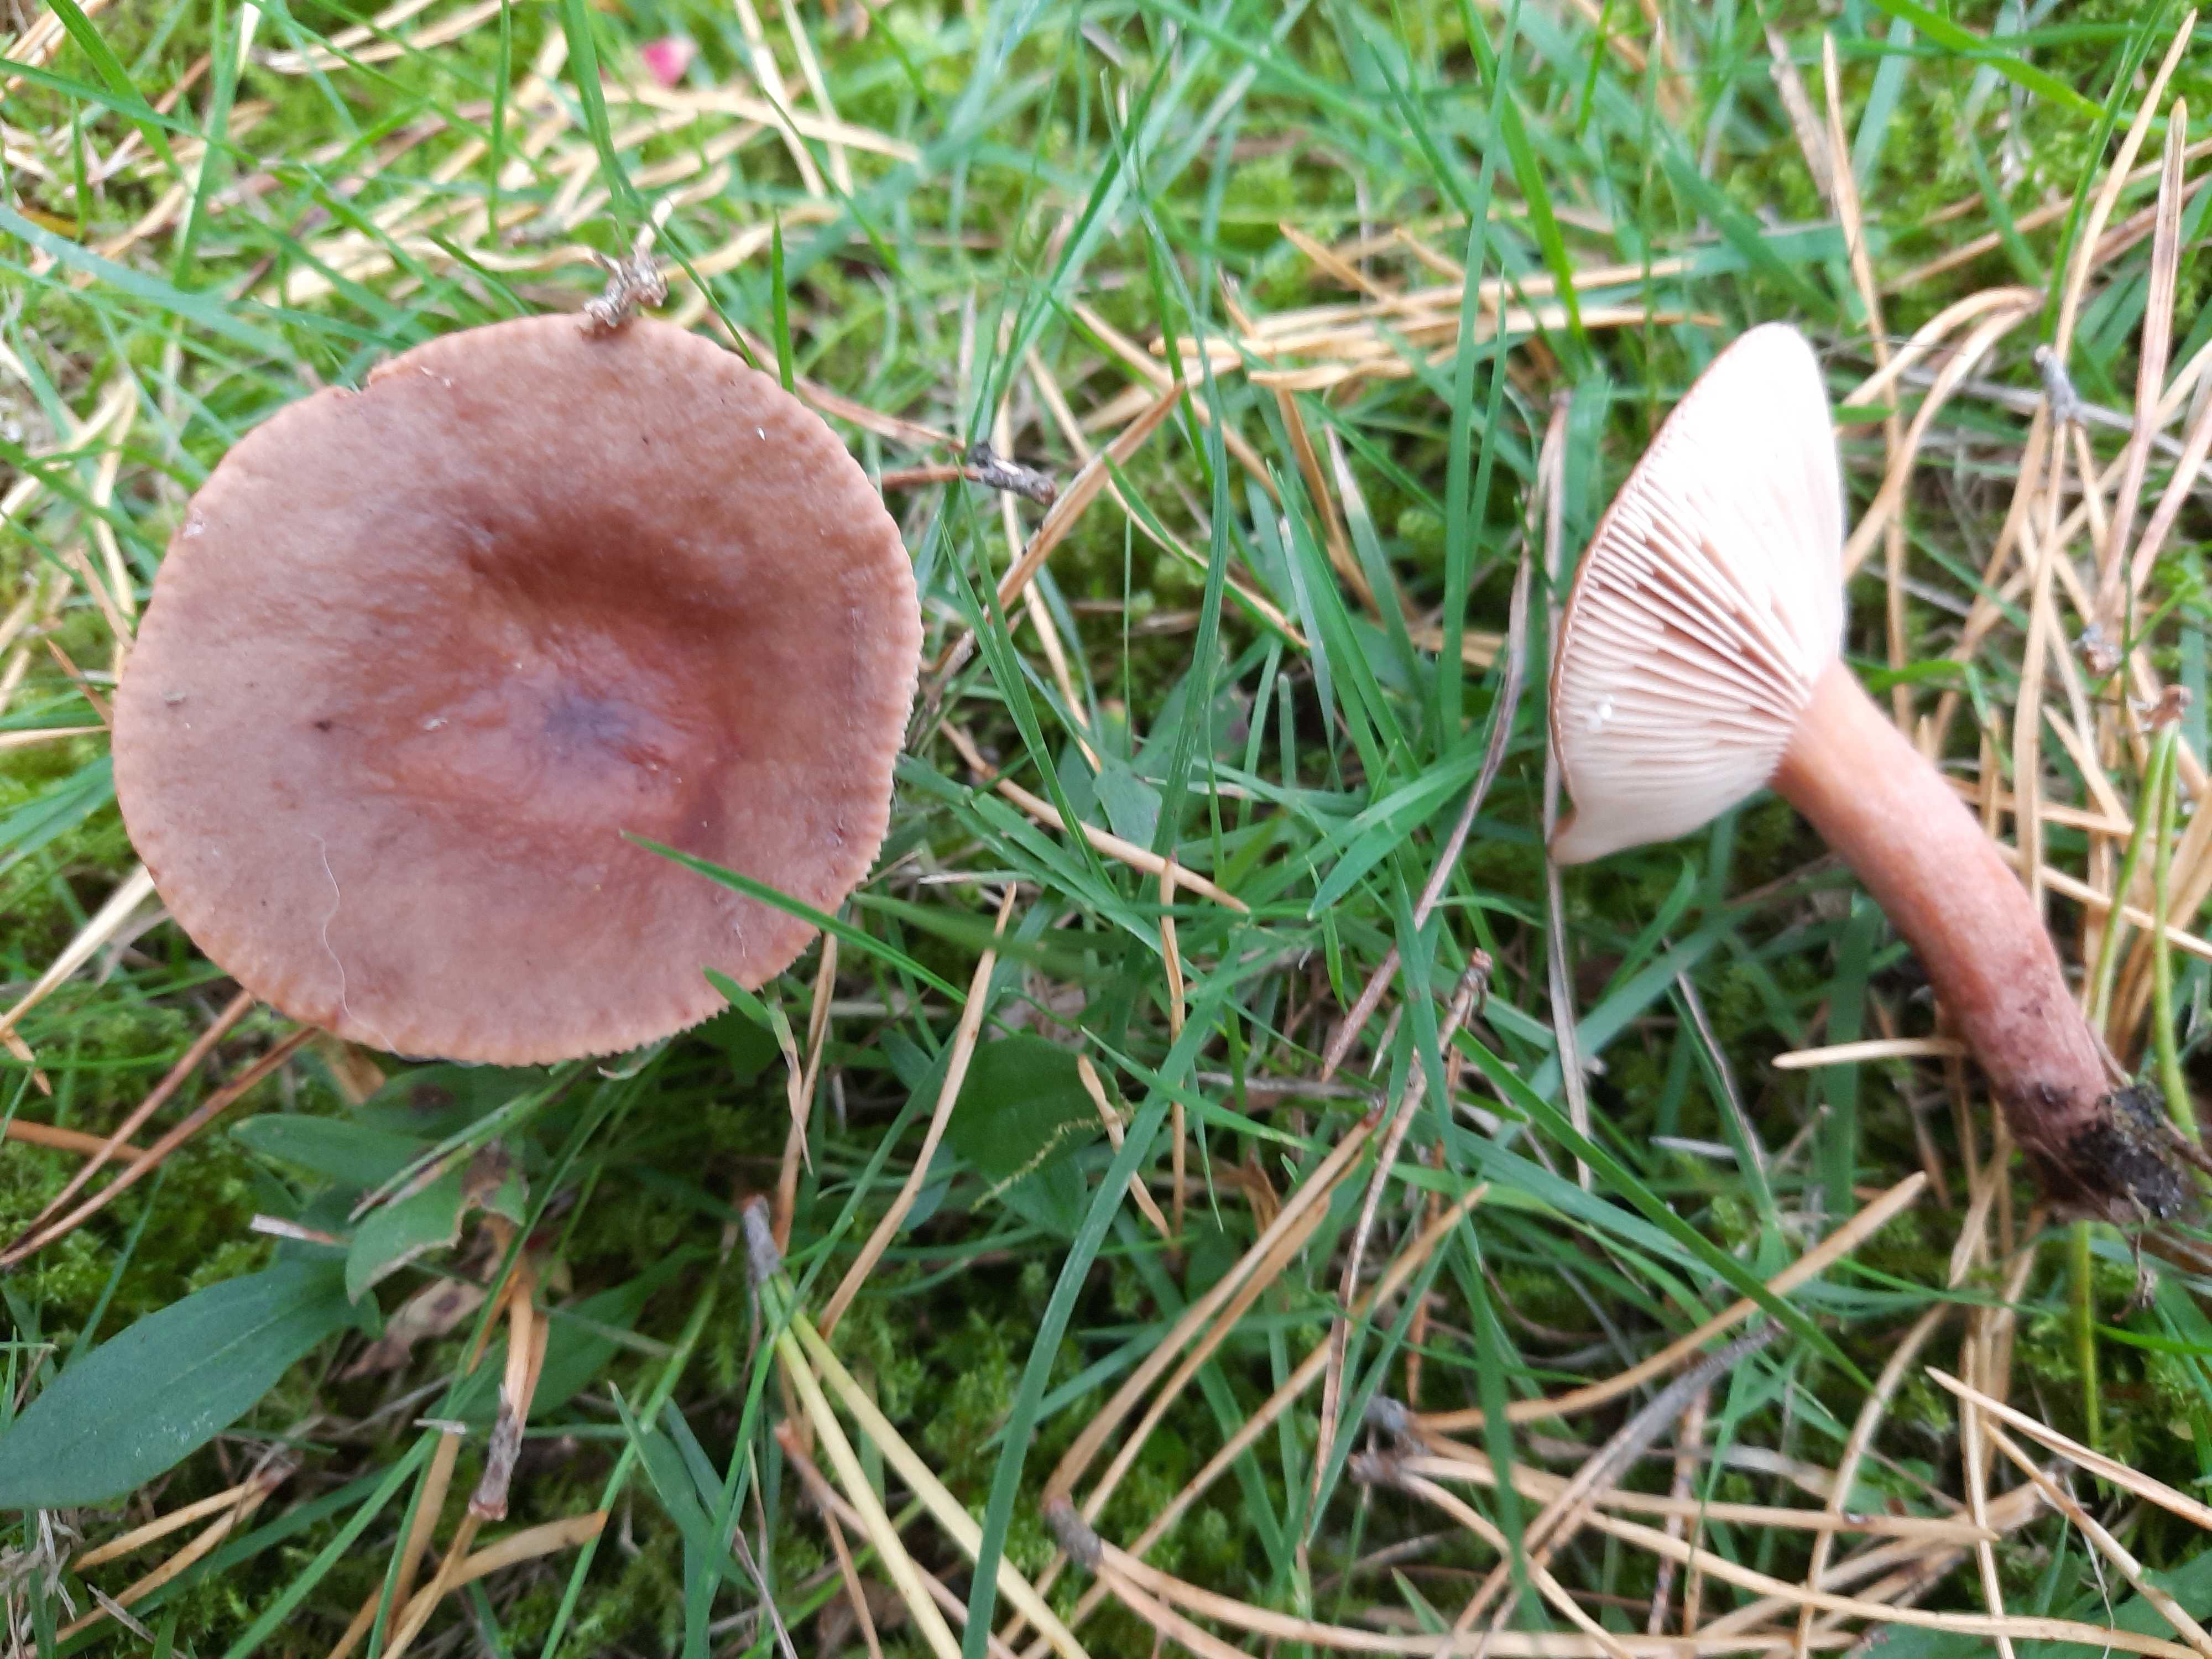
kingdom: Fungi
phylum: Basidiomycota
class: Agaricomycetes
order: Russulales
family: Russulaceae
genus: Lactarius
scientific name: Lactarius hepaticus
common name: leverbrun mælkehat
